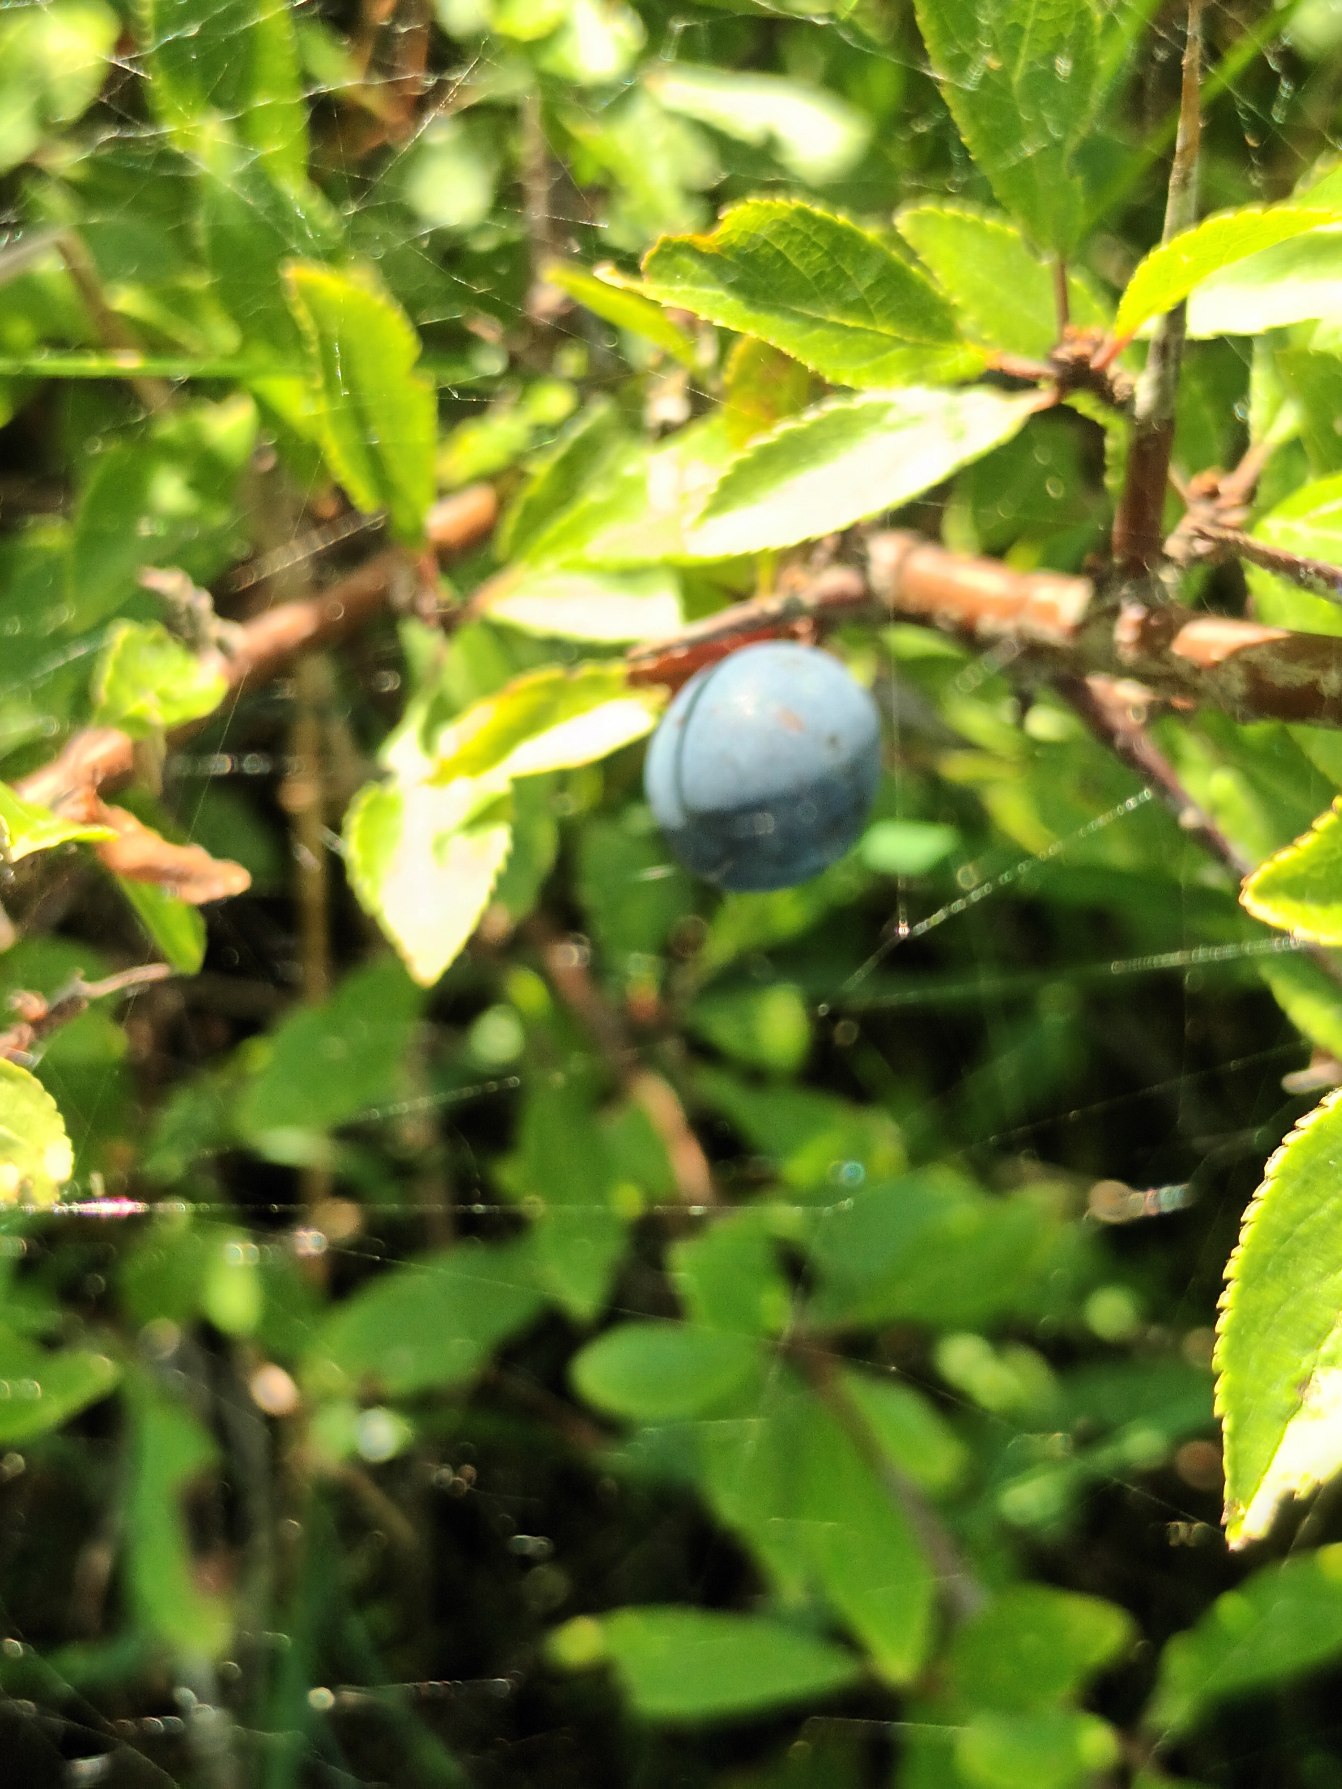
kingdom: Plantae
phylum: Tracheophyta
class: Magnoliopsida
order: Rosales
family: Rosaceae
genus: Prunus
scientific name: Prunus spinosa
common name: Slåen
